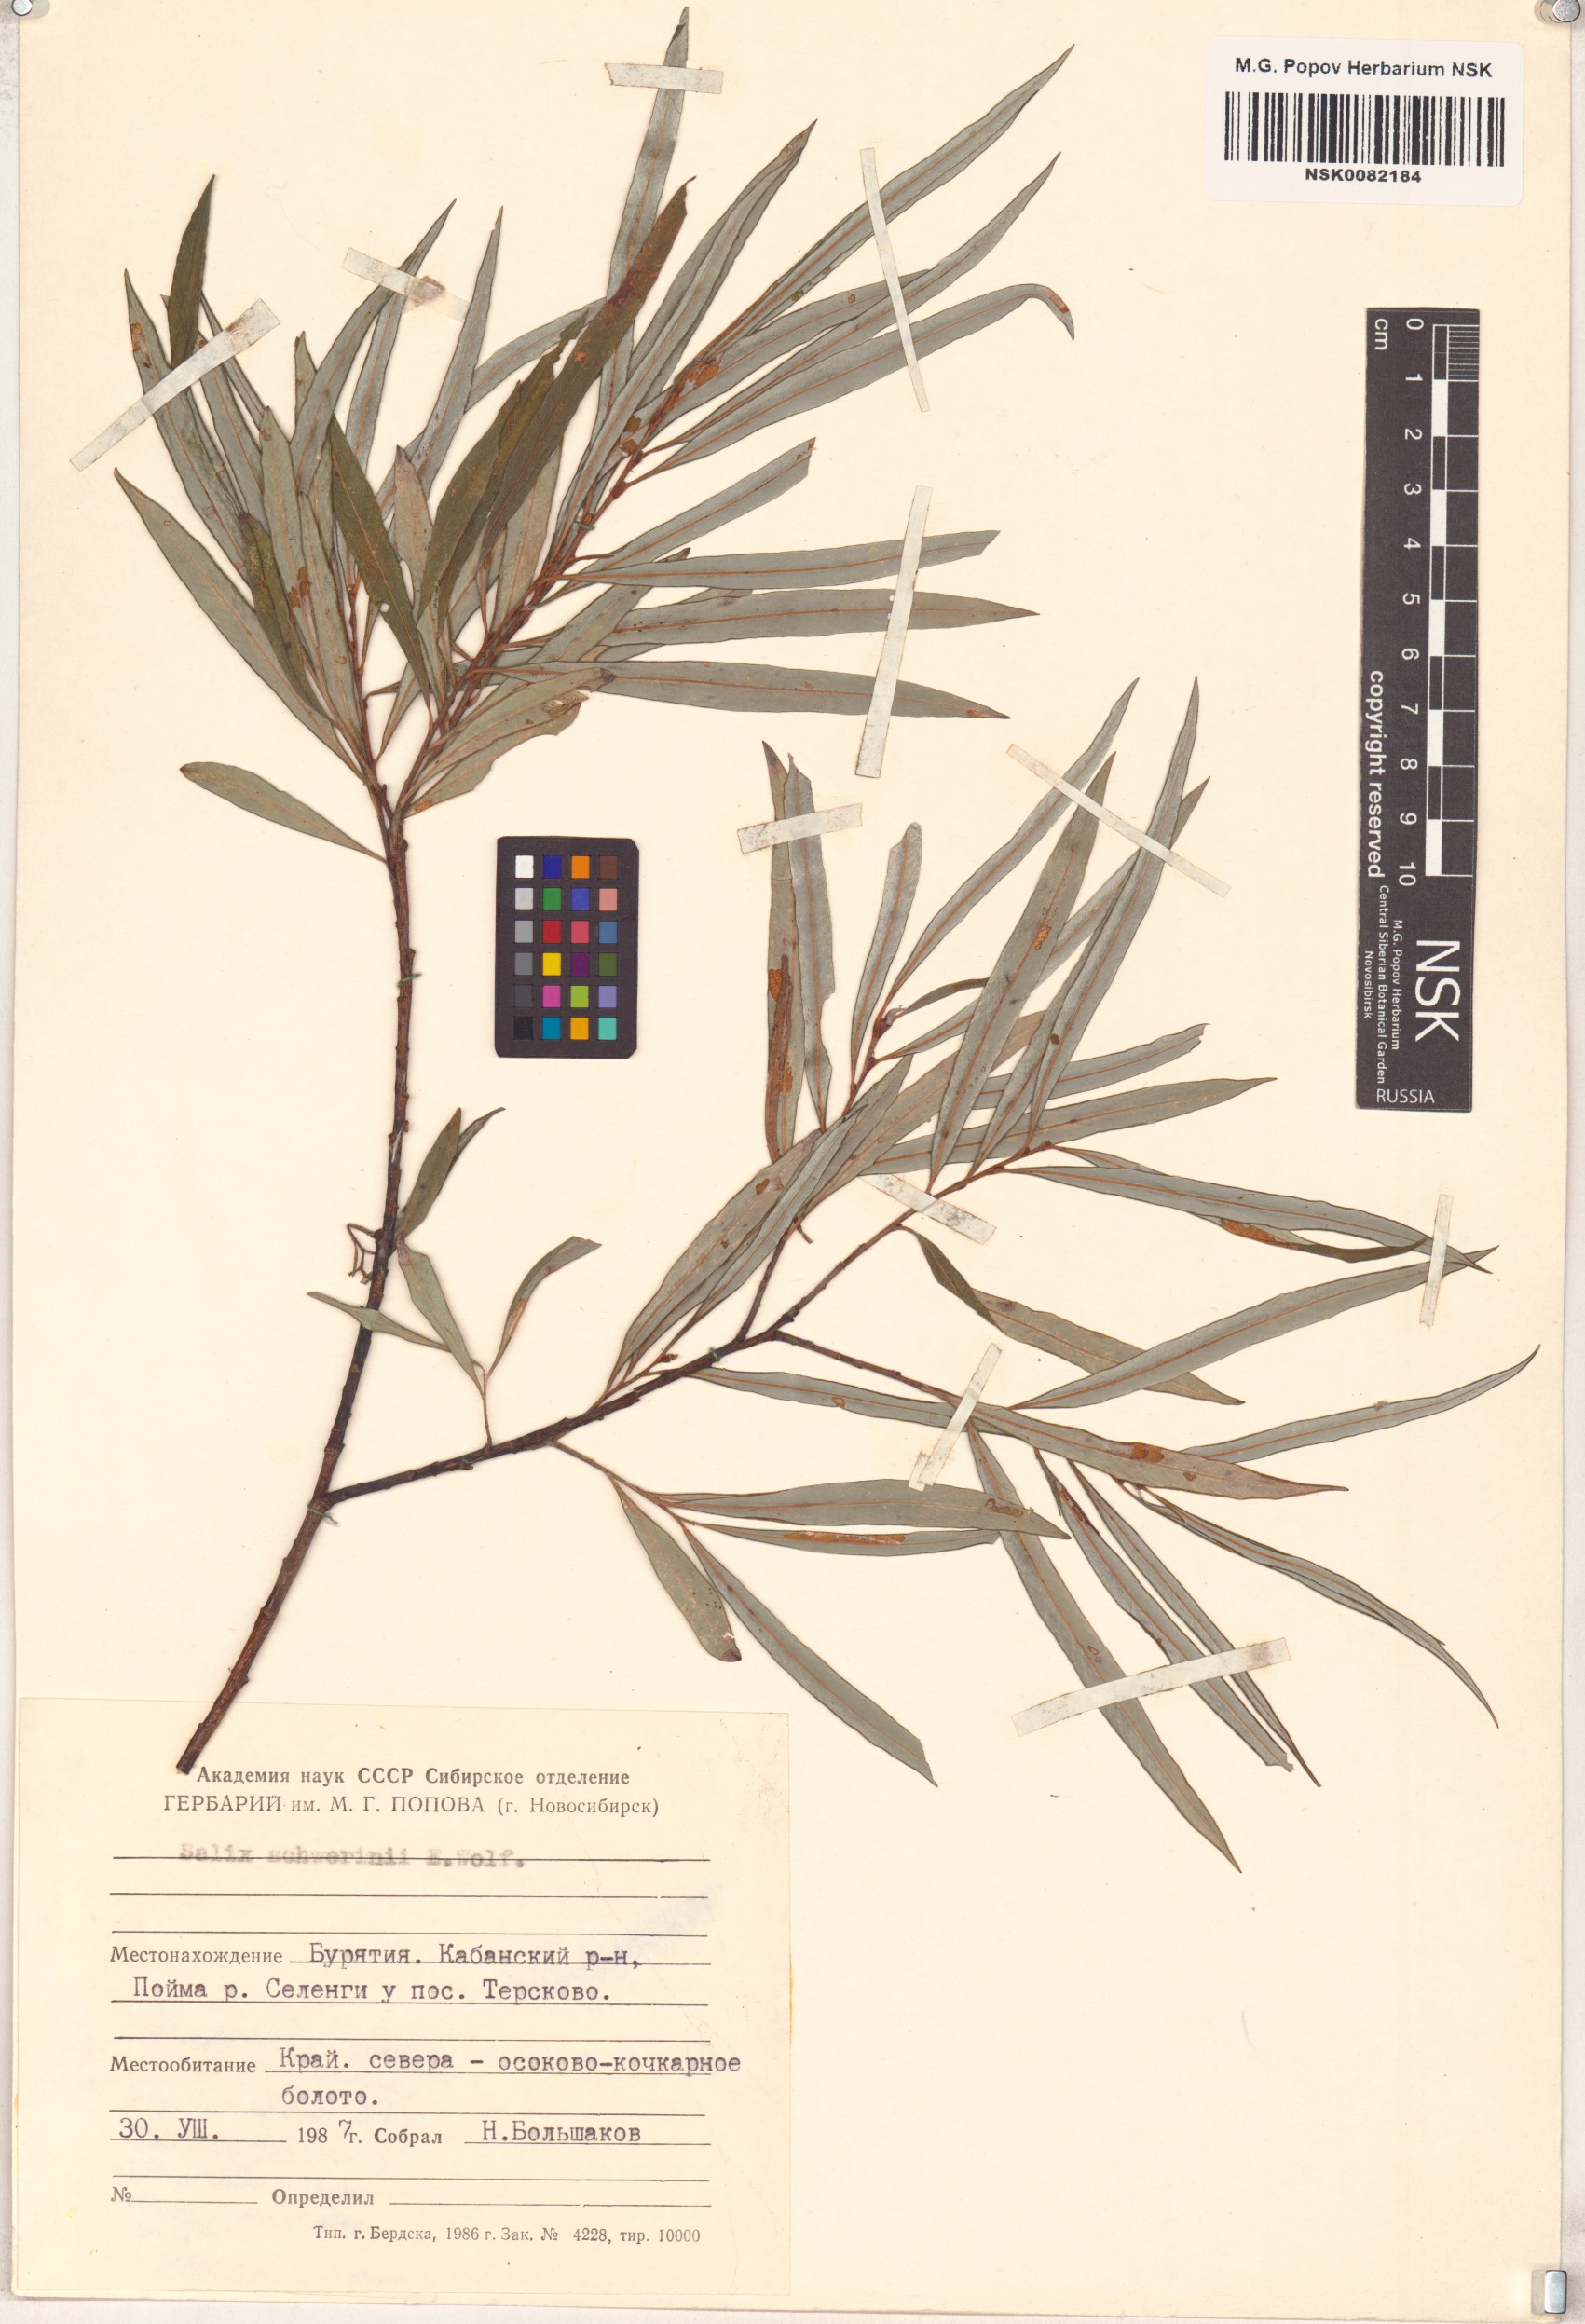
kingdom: Plantae
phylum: Tracheophyta
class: Magnoliopsida
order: Malpighiales
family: Salicaceae
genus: Salix
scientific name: Salix schwerinii
